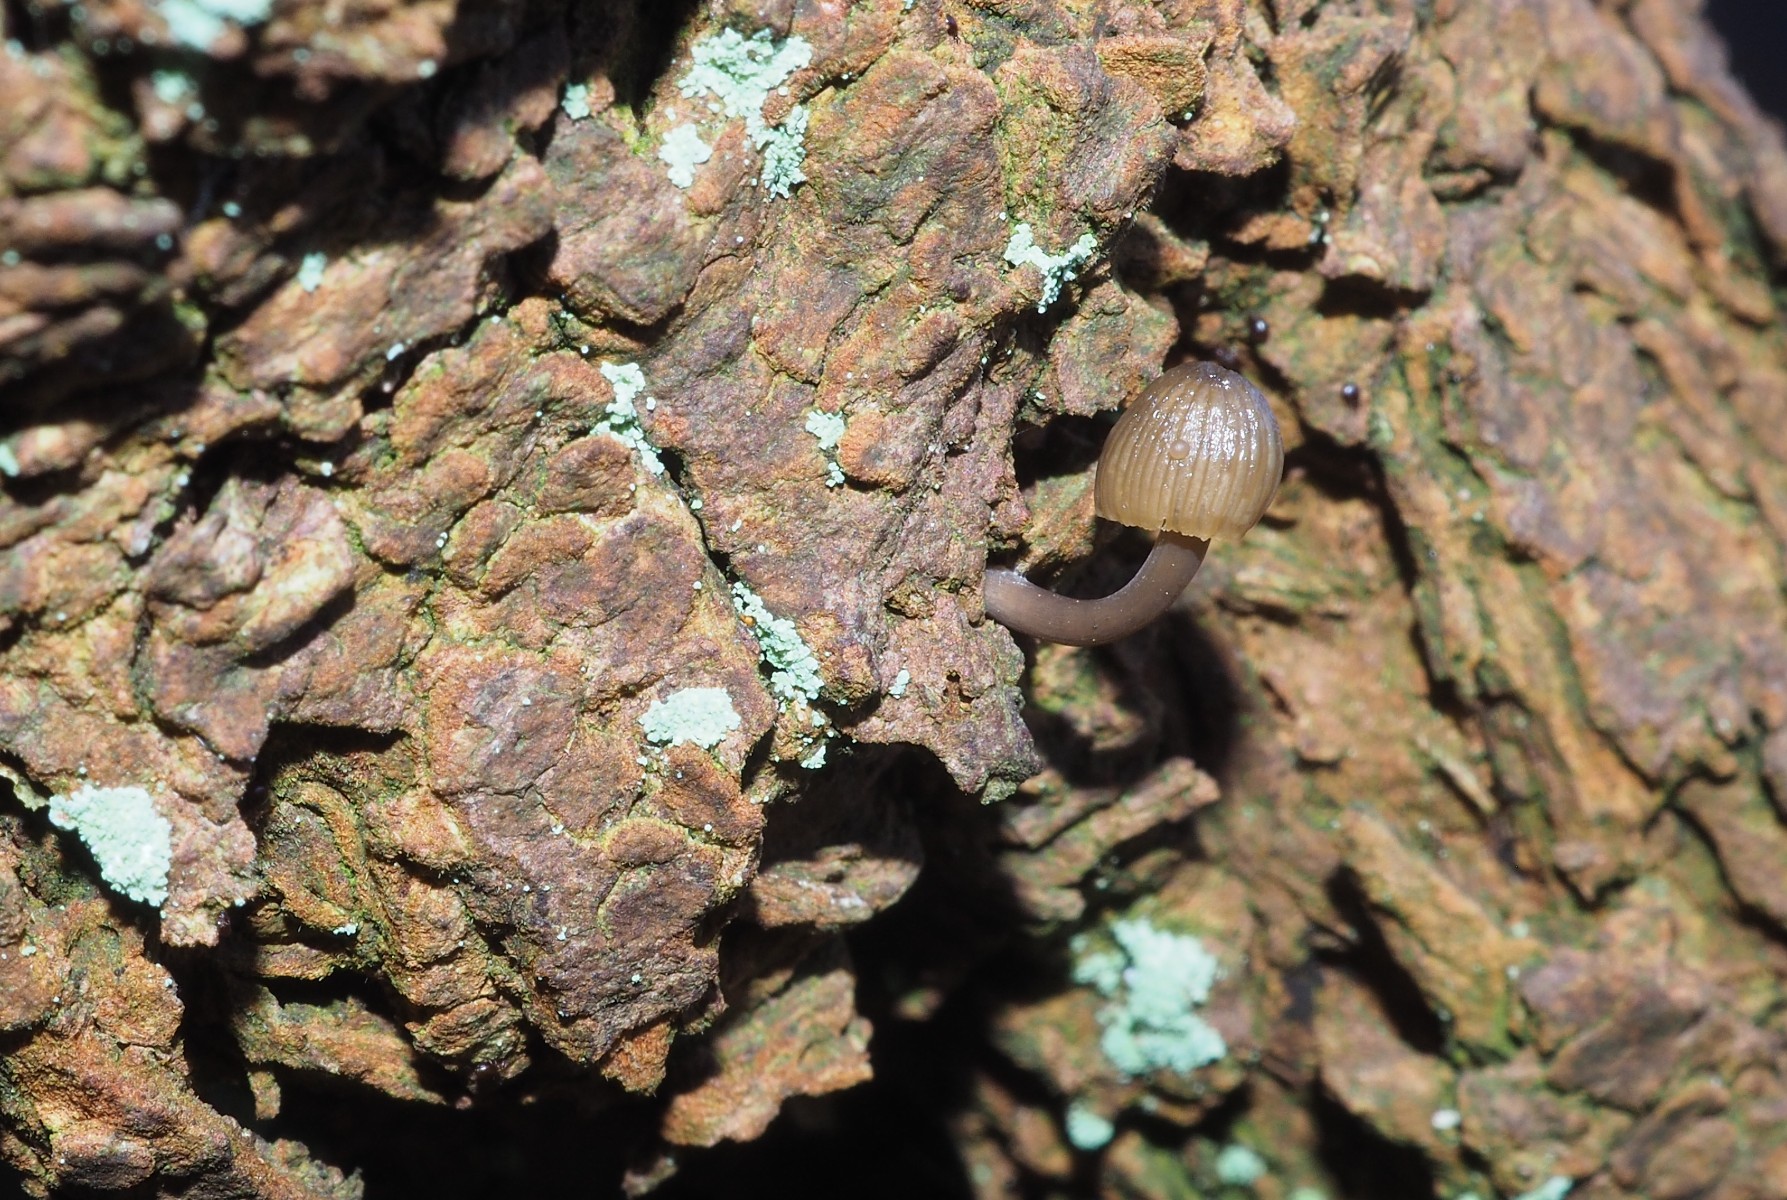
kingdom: Fungi
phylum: Basidiomycota
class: Agaricomycetes
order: Agaricales
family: Mycenaceae
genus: Mycena
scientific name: Mycena
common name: huesvamp
